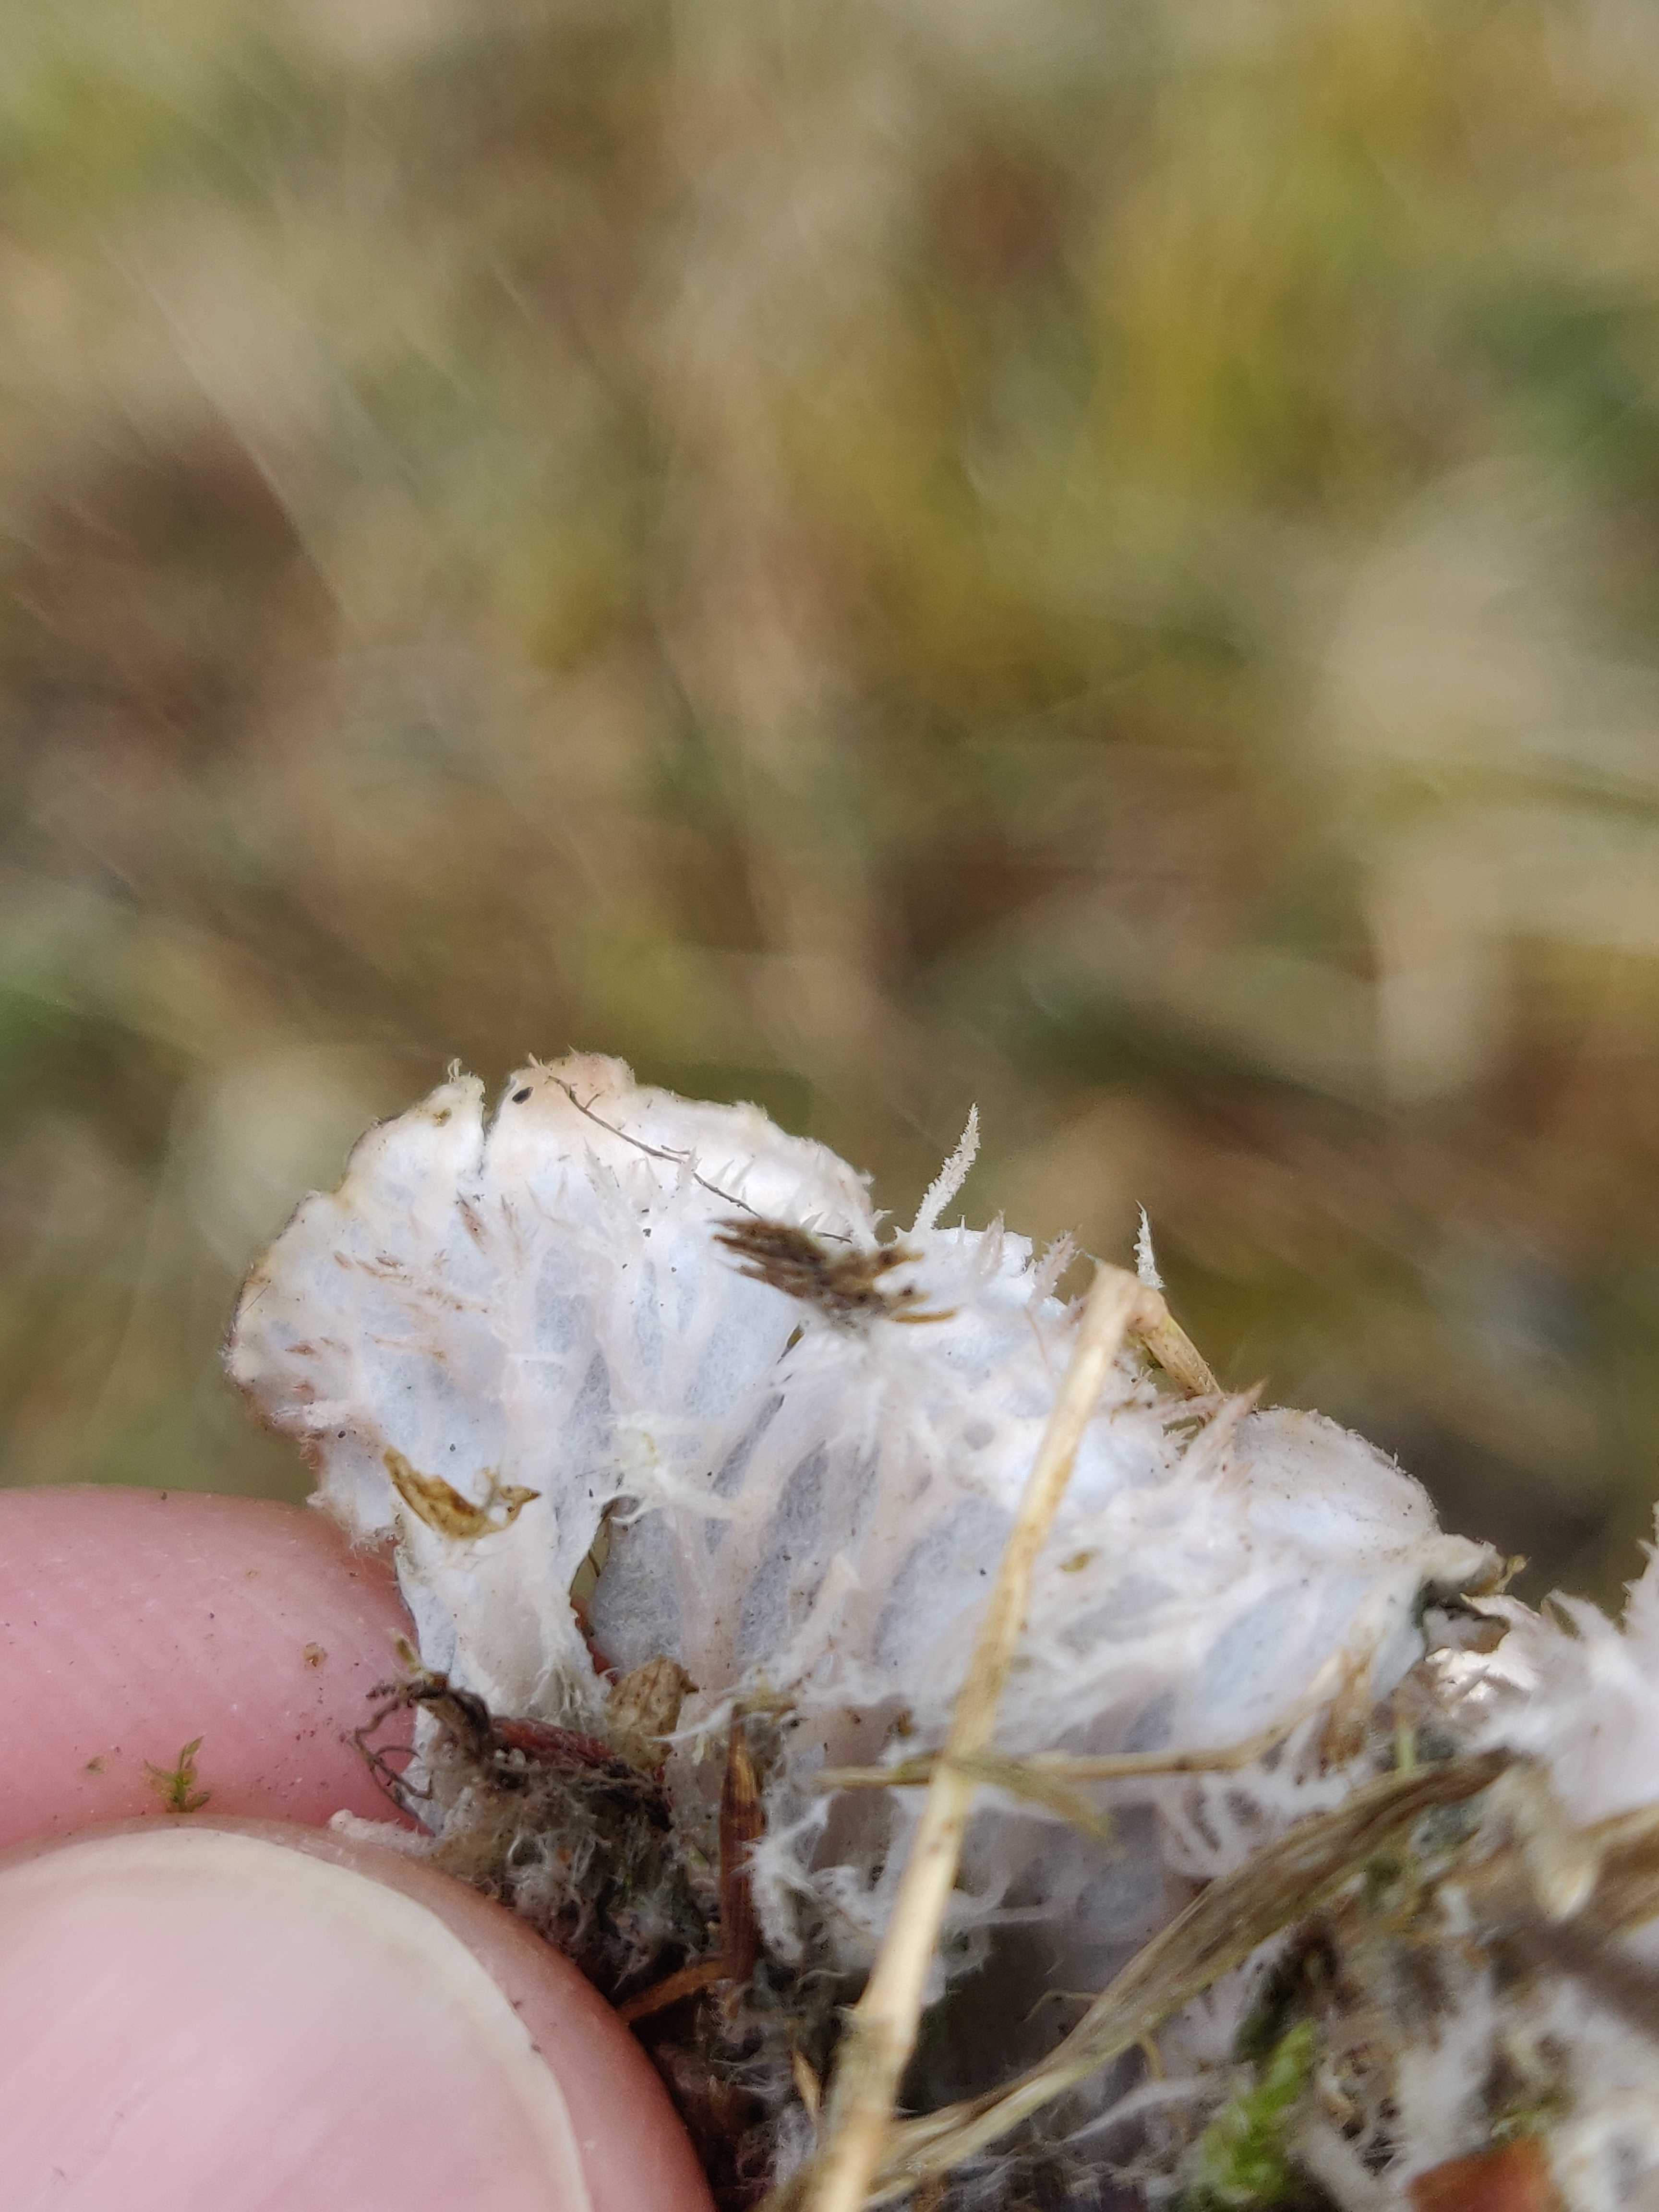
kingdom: Fungi
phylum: Ascomycota
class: Lecanoromycetes
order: Peltigerales
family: Peltigeraceae
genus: Peltigera
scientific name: Peltigera
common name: skjoldlav
